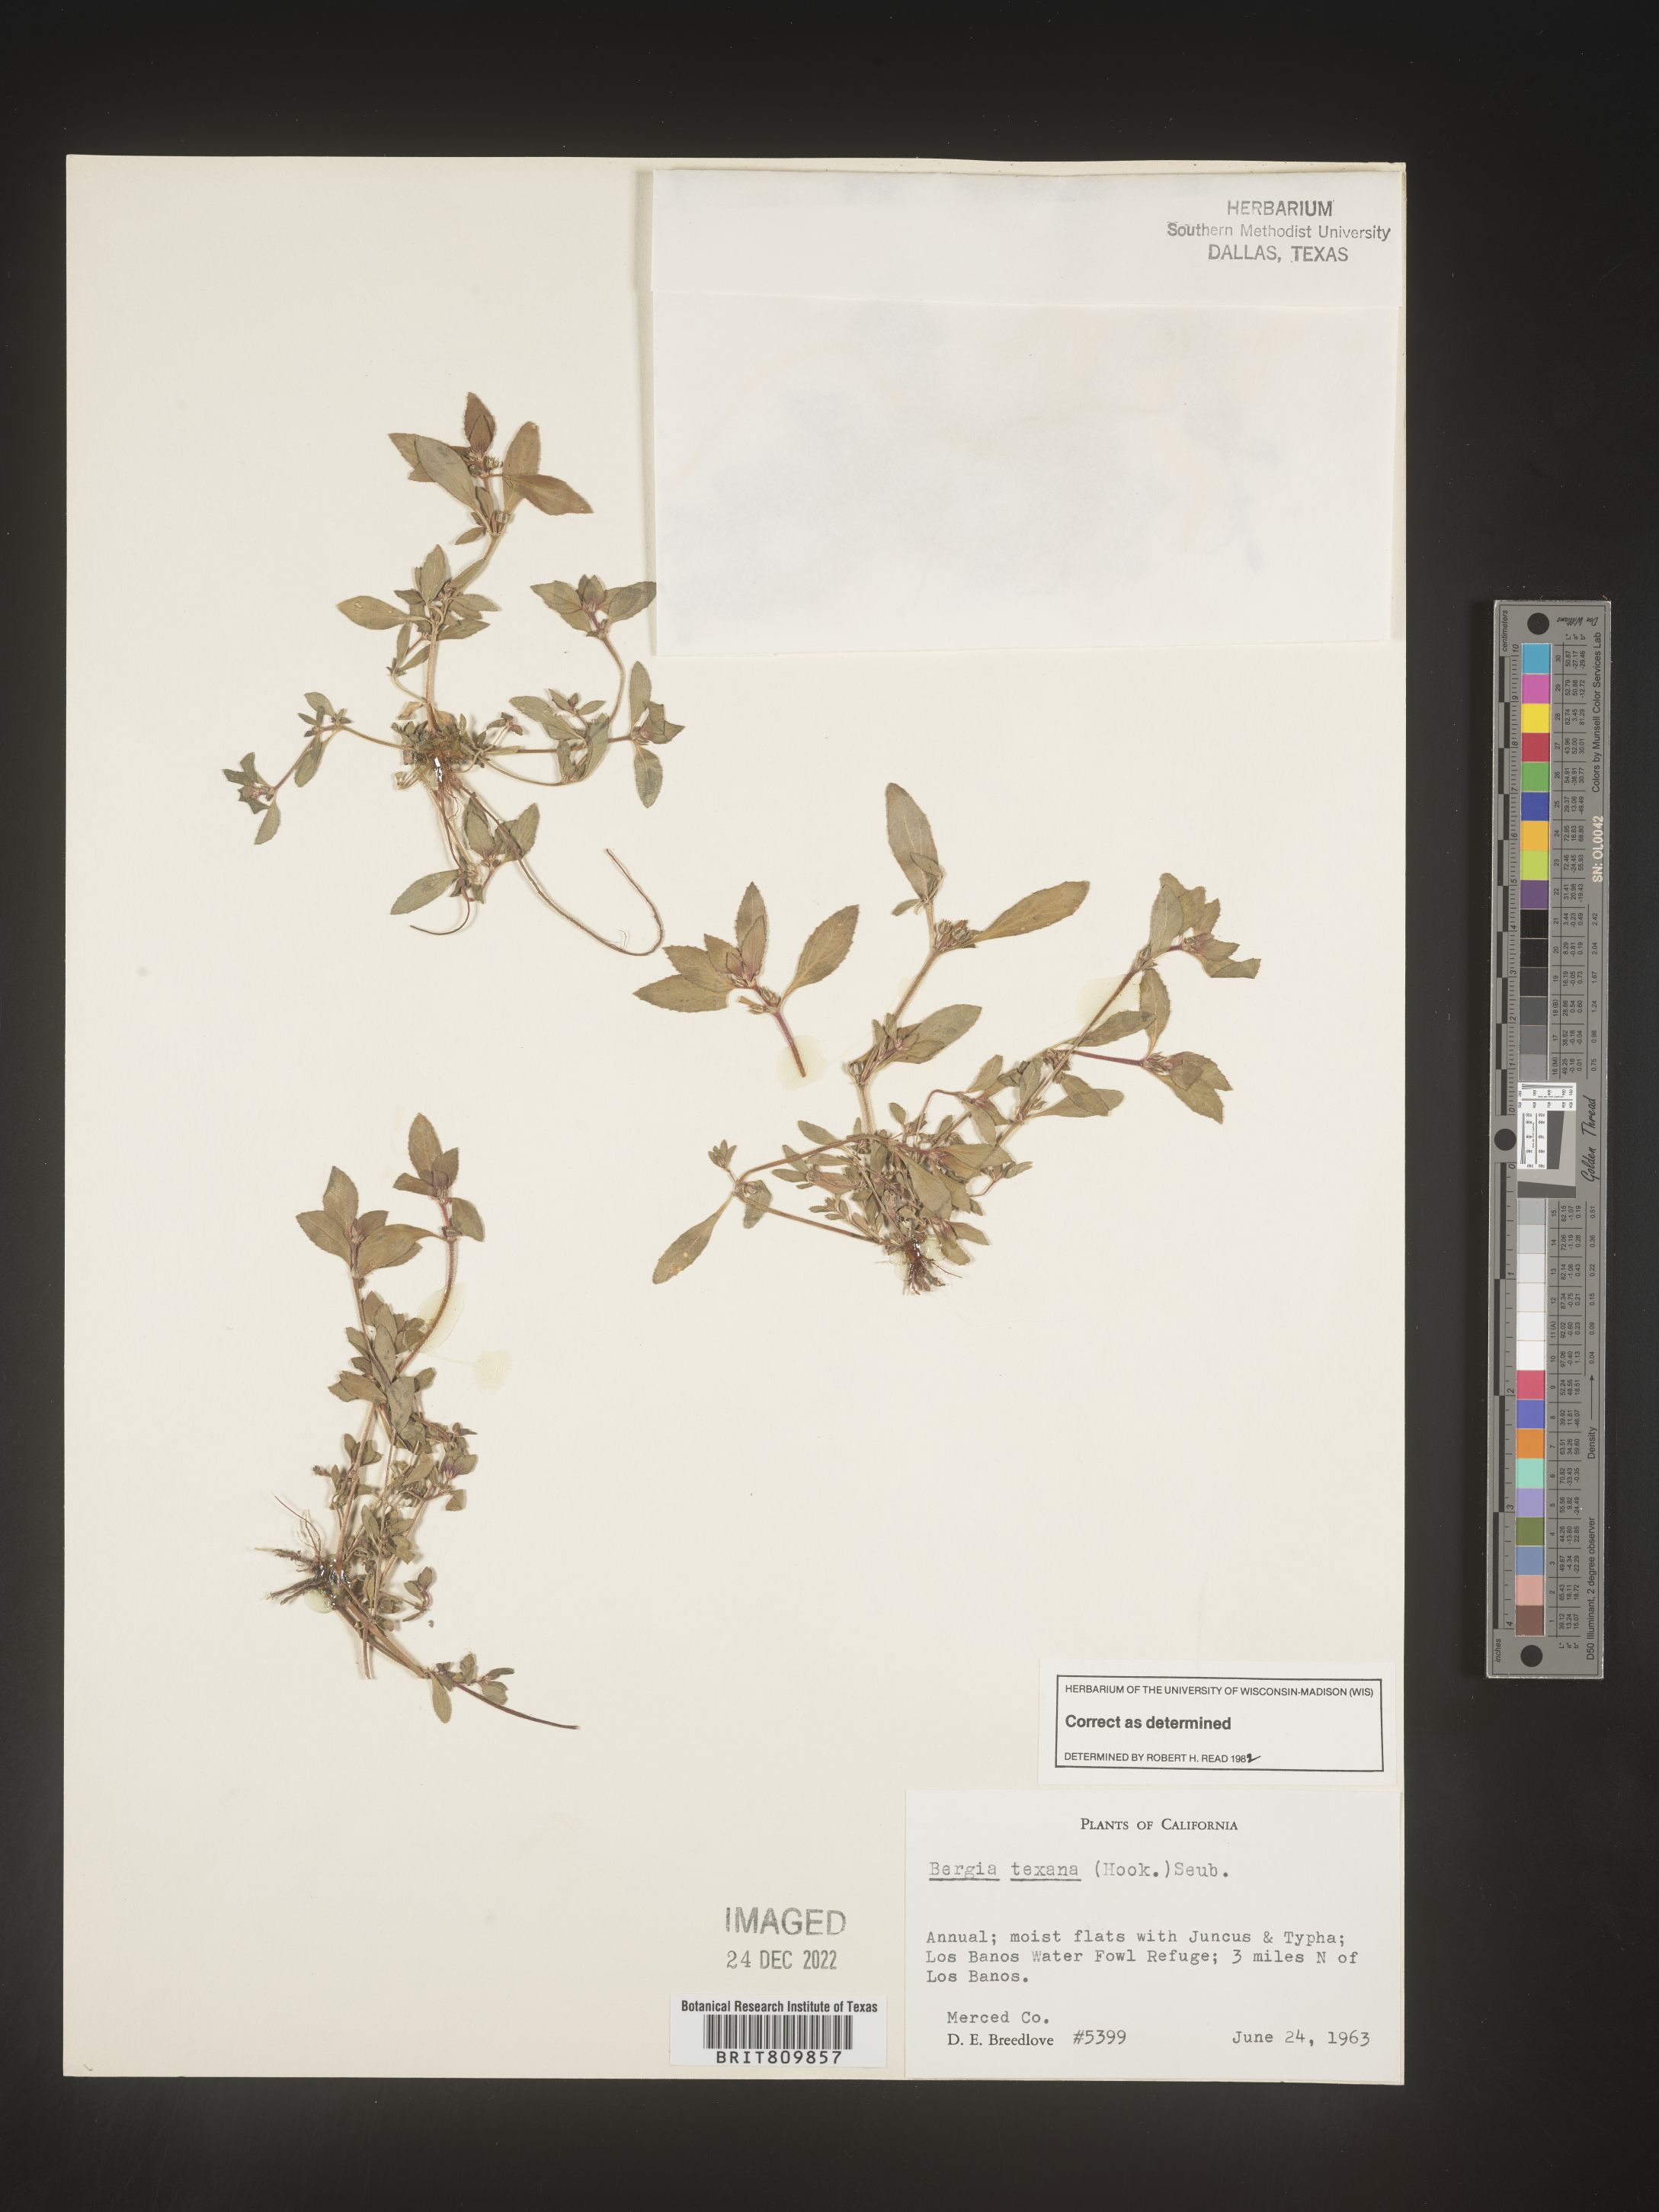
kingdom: Plantae
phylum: Tracheophyta
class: Magnoliopsida
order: Malpighiales
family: Elatinaceae
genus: Bergia
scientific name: Bergia
